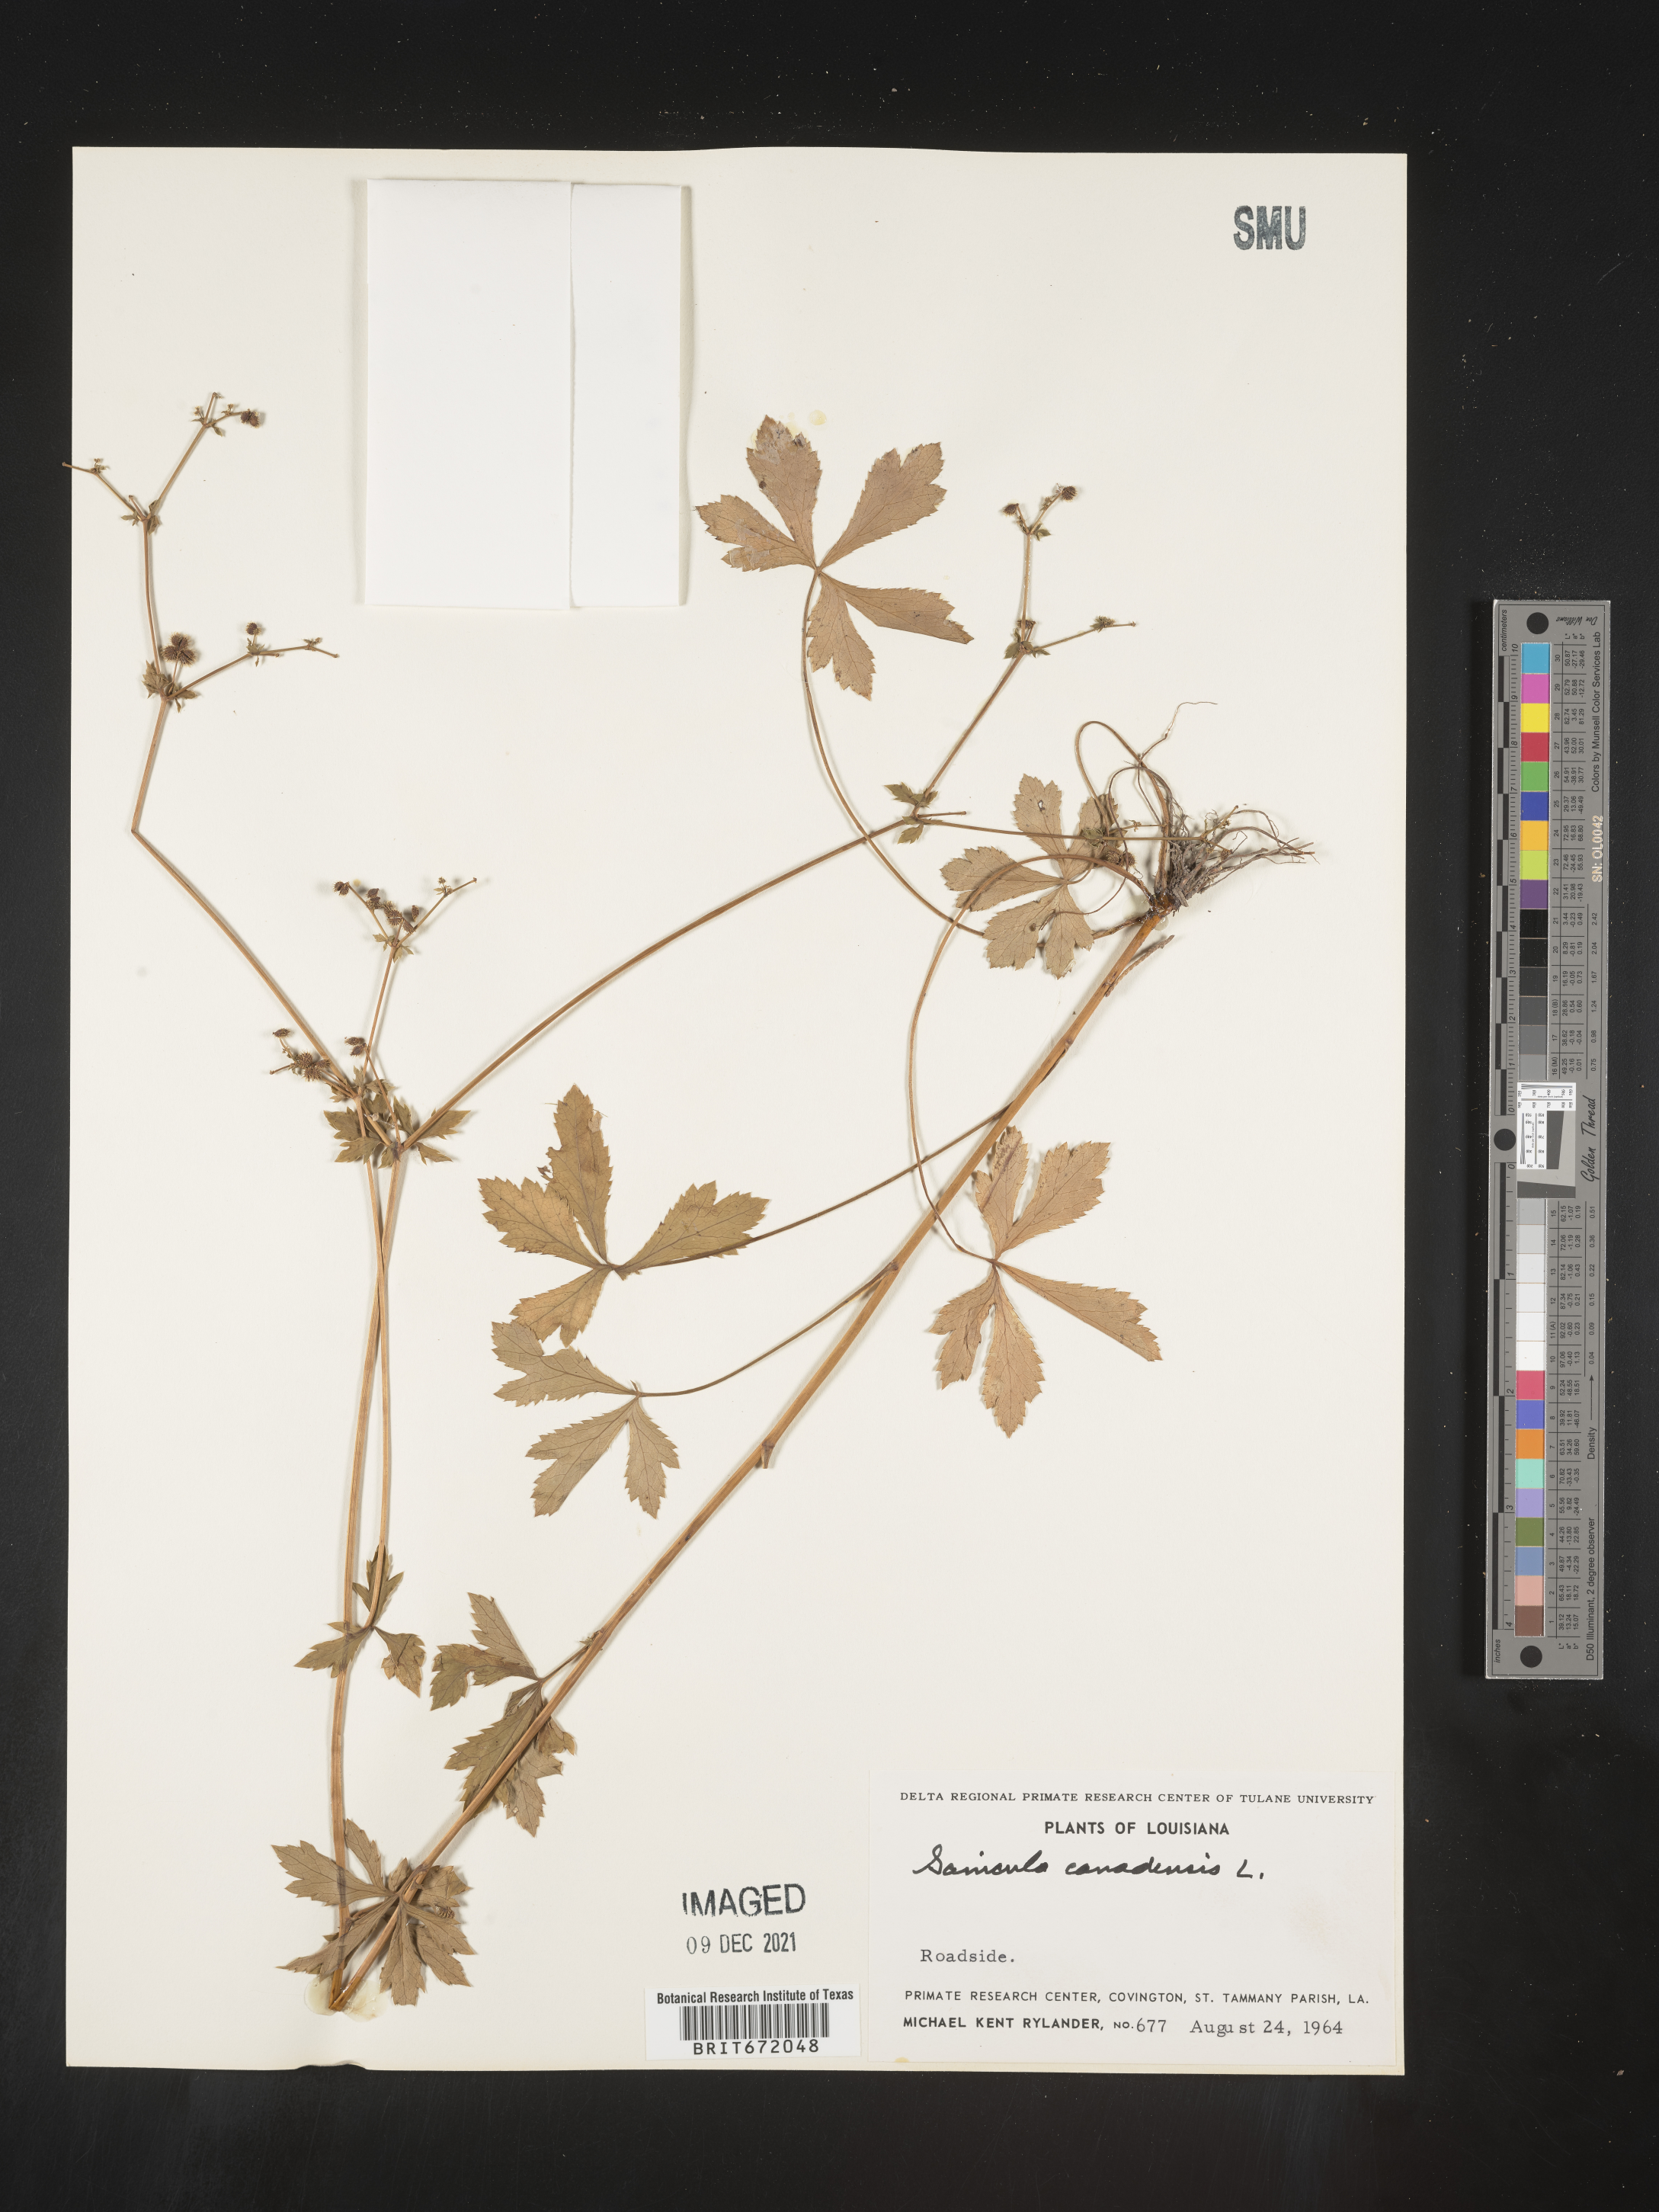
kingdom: Plantae
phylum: Tracheophyta
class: Magnoliopsida
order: Apiales
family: Apiaceae
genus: Sanicula
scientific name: Sanicula canadensis
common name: Canada sanicle
